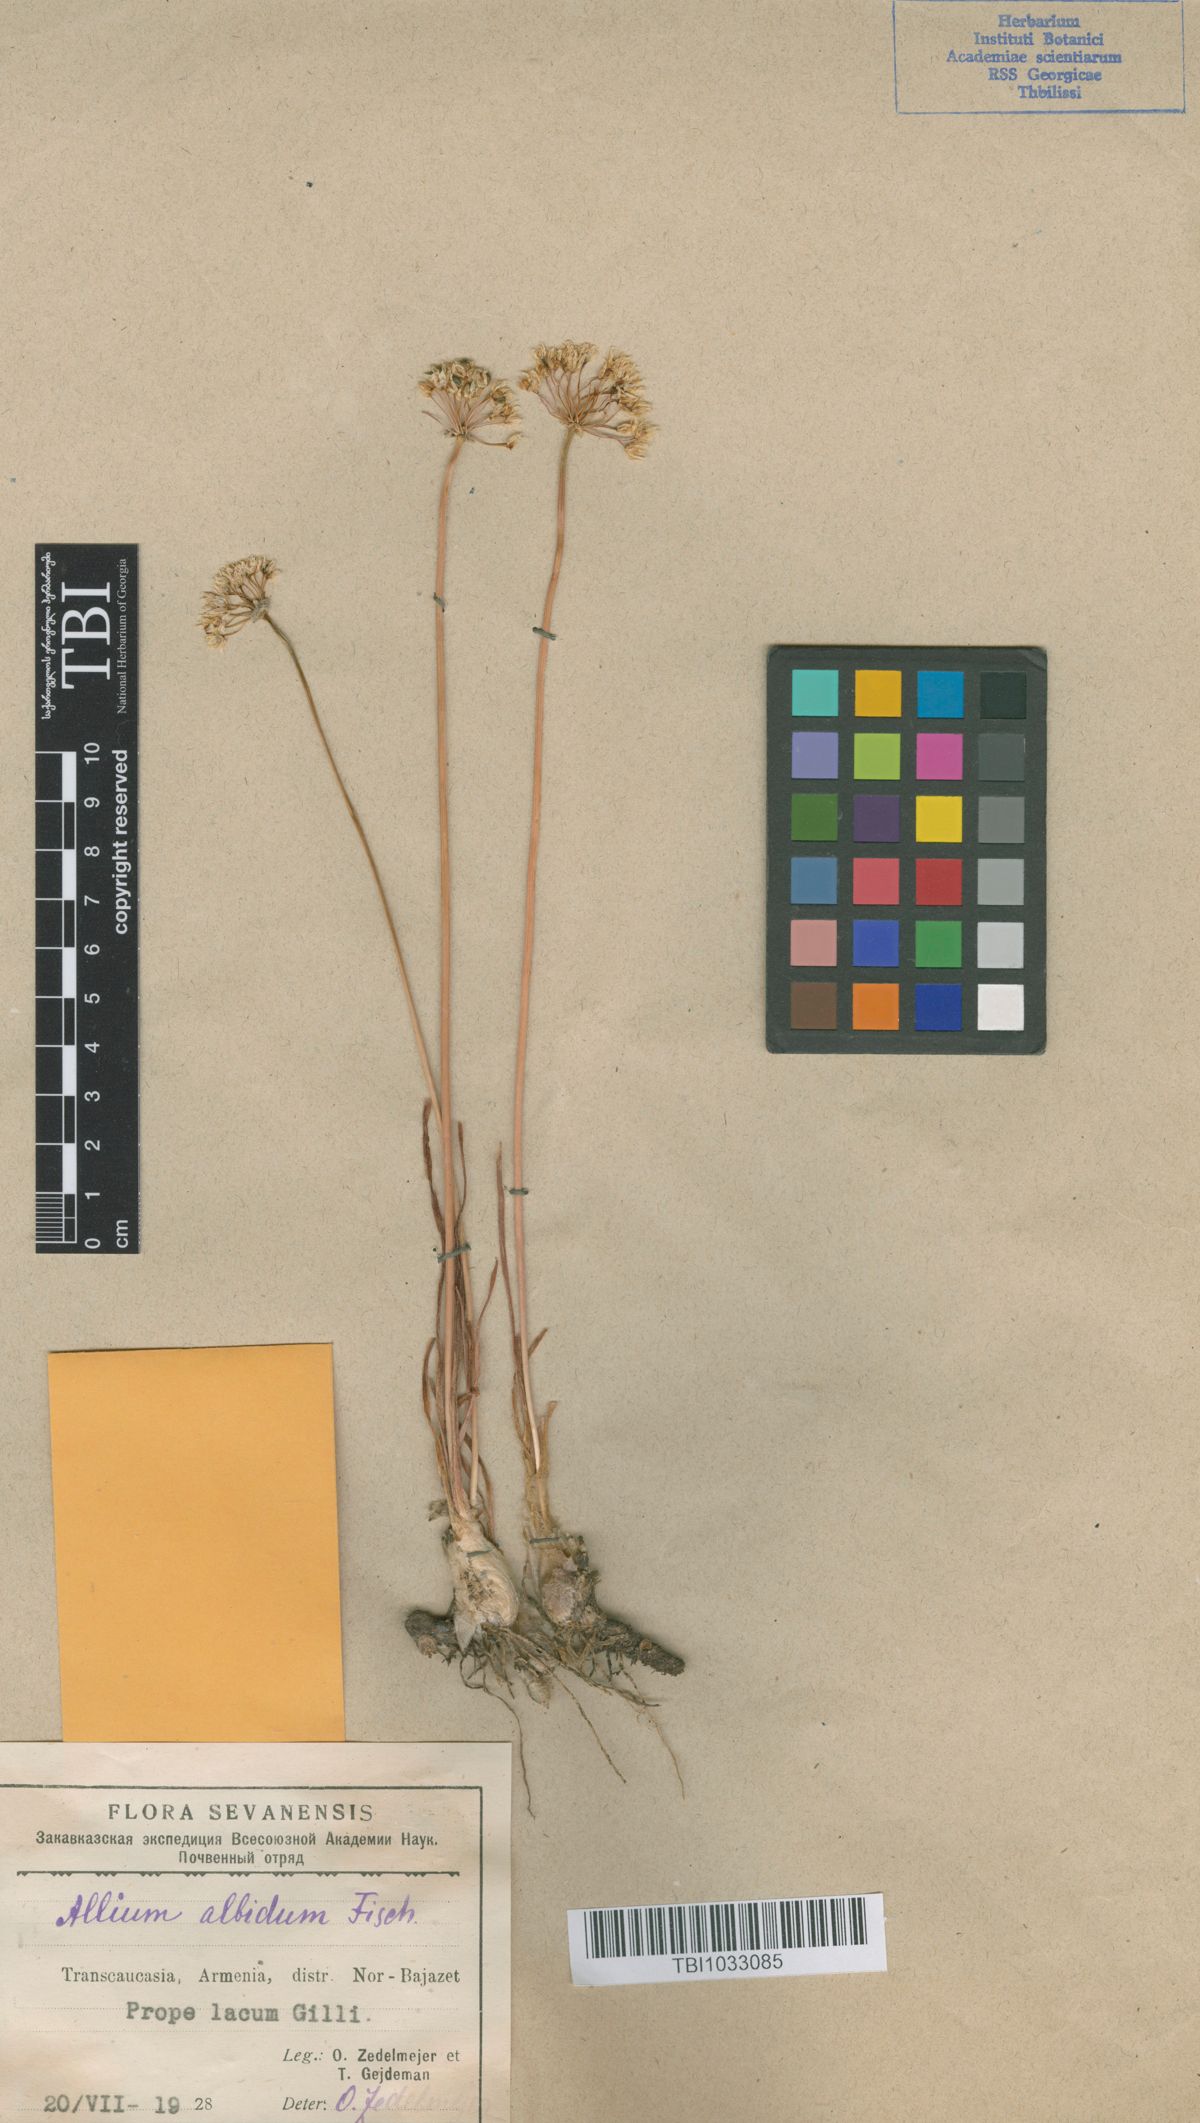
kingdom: Plantae
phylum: Tracheophyta
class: Liliopsida
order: Asparagales
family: Amaryllidaceae
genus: Allium
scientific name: Allium denudatum
